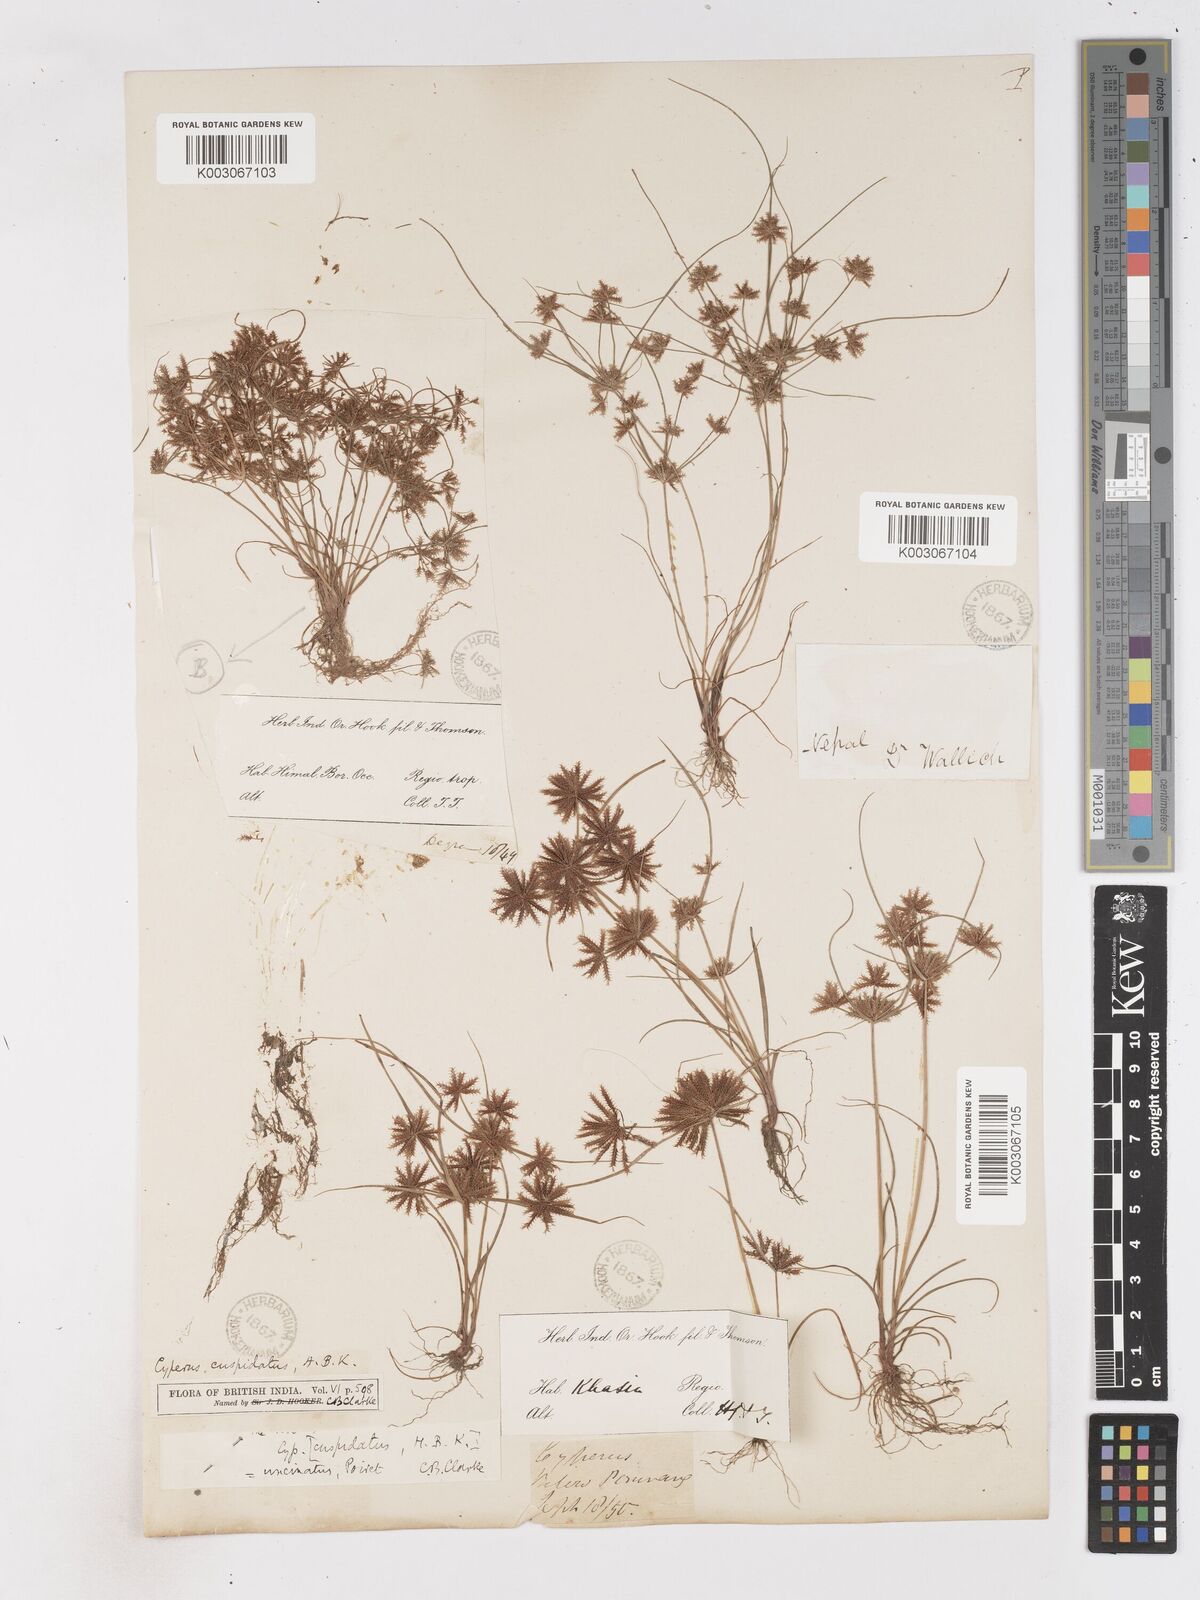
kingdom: Plantae
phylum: Tracheophyta
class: Liliopsida
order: Poales
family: Cyperaceae
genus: Cyperus
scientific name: Cyperus cuspidatus
